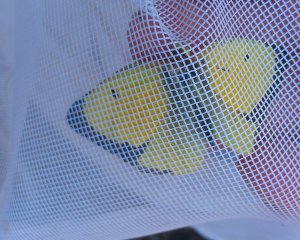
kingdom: Animalia
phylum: Arthropoda
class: Insecta
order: Lepidoptera
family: Pieridae
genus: Colias
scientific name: Colias eurytheme
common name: Orange Sulphur
